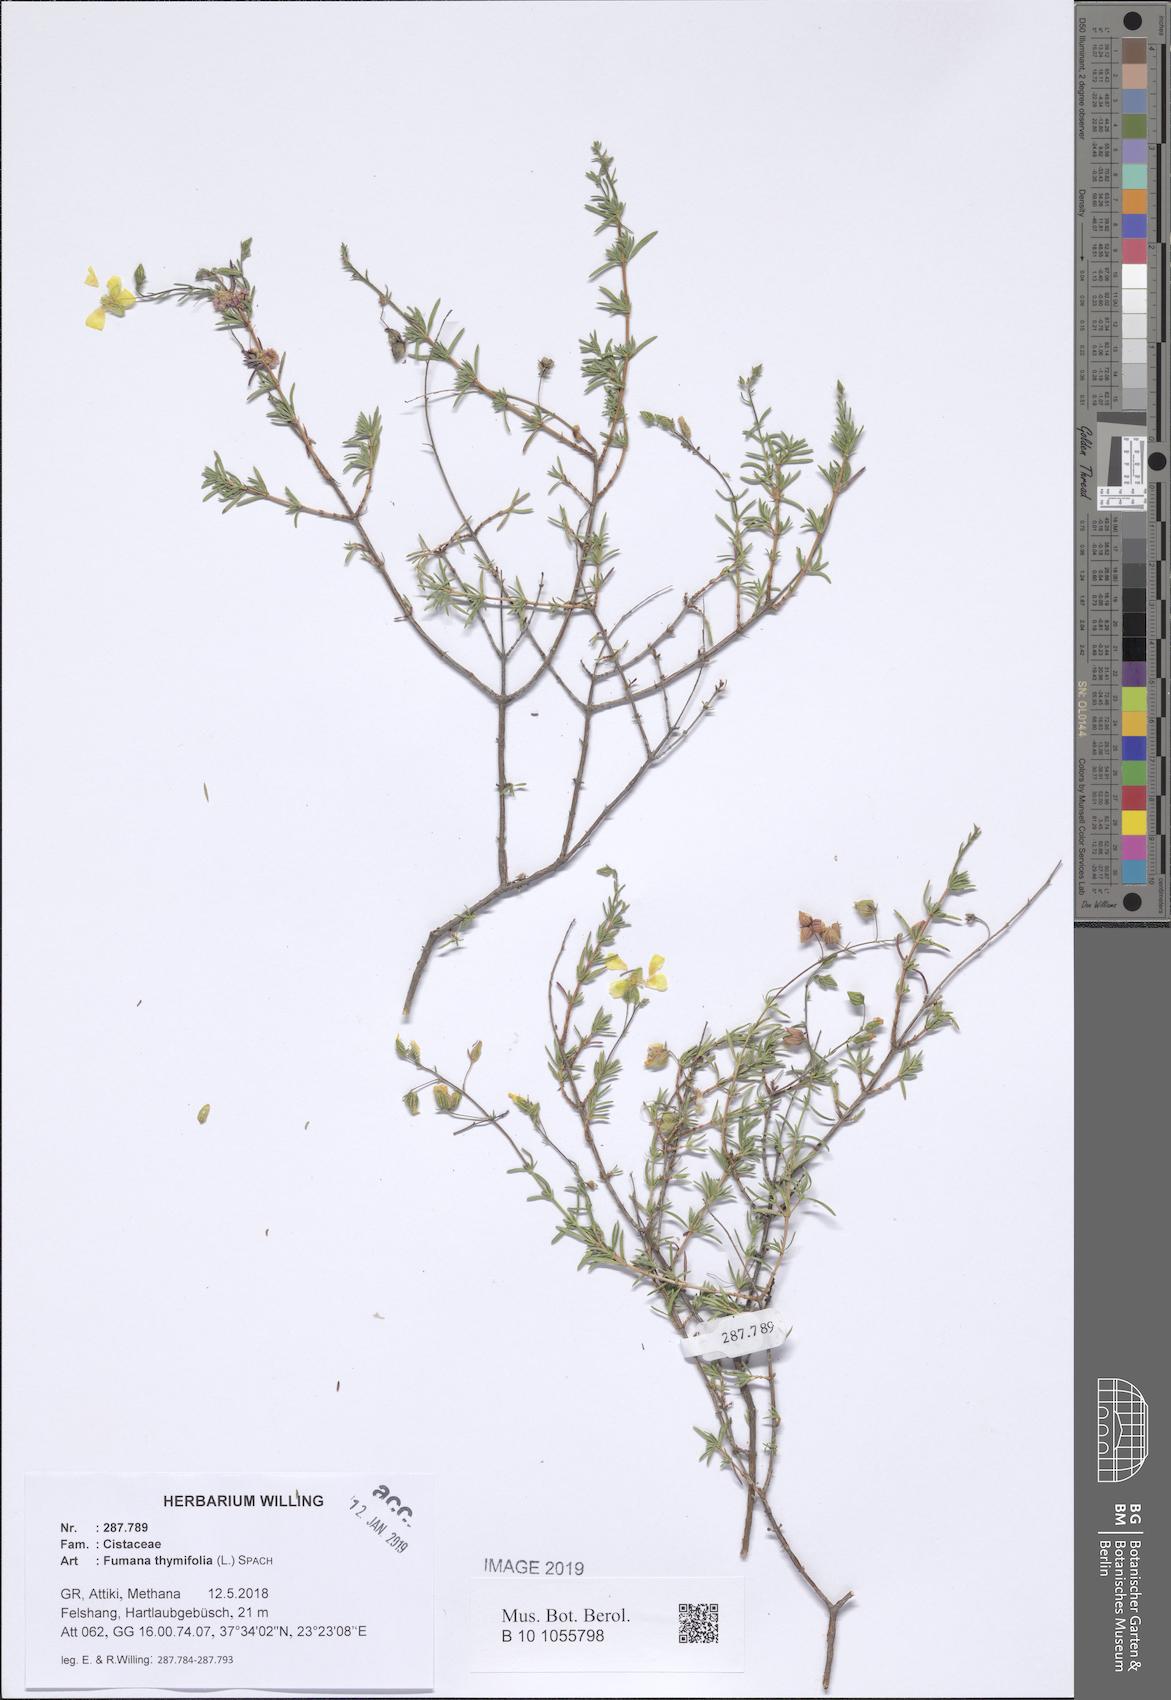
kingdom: Plantae
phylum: Tracheophyta
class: Magnoliopsida
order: Malvales
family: Cistaceae
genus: Fumana
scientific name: Fumana thymifolia
